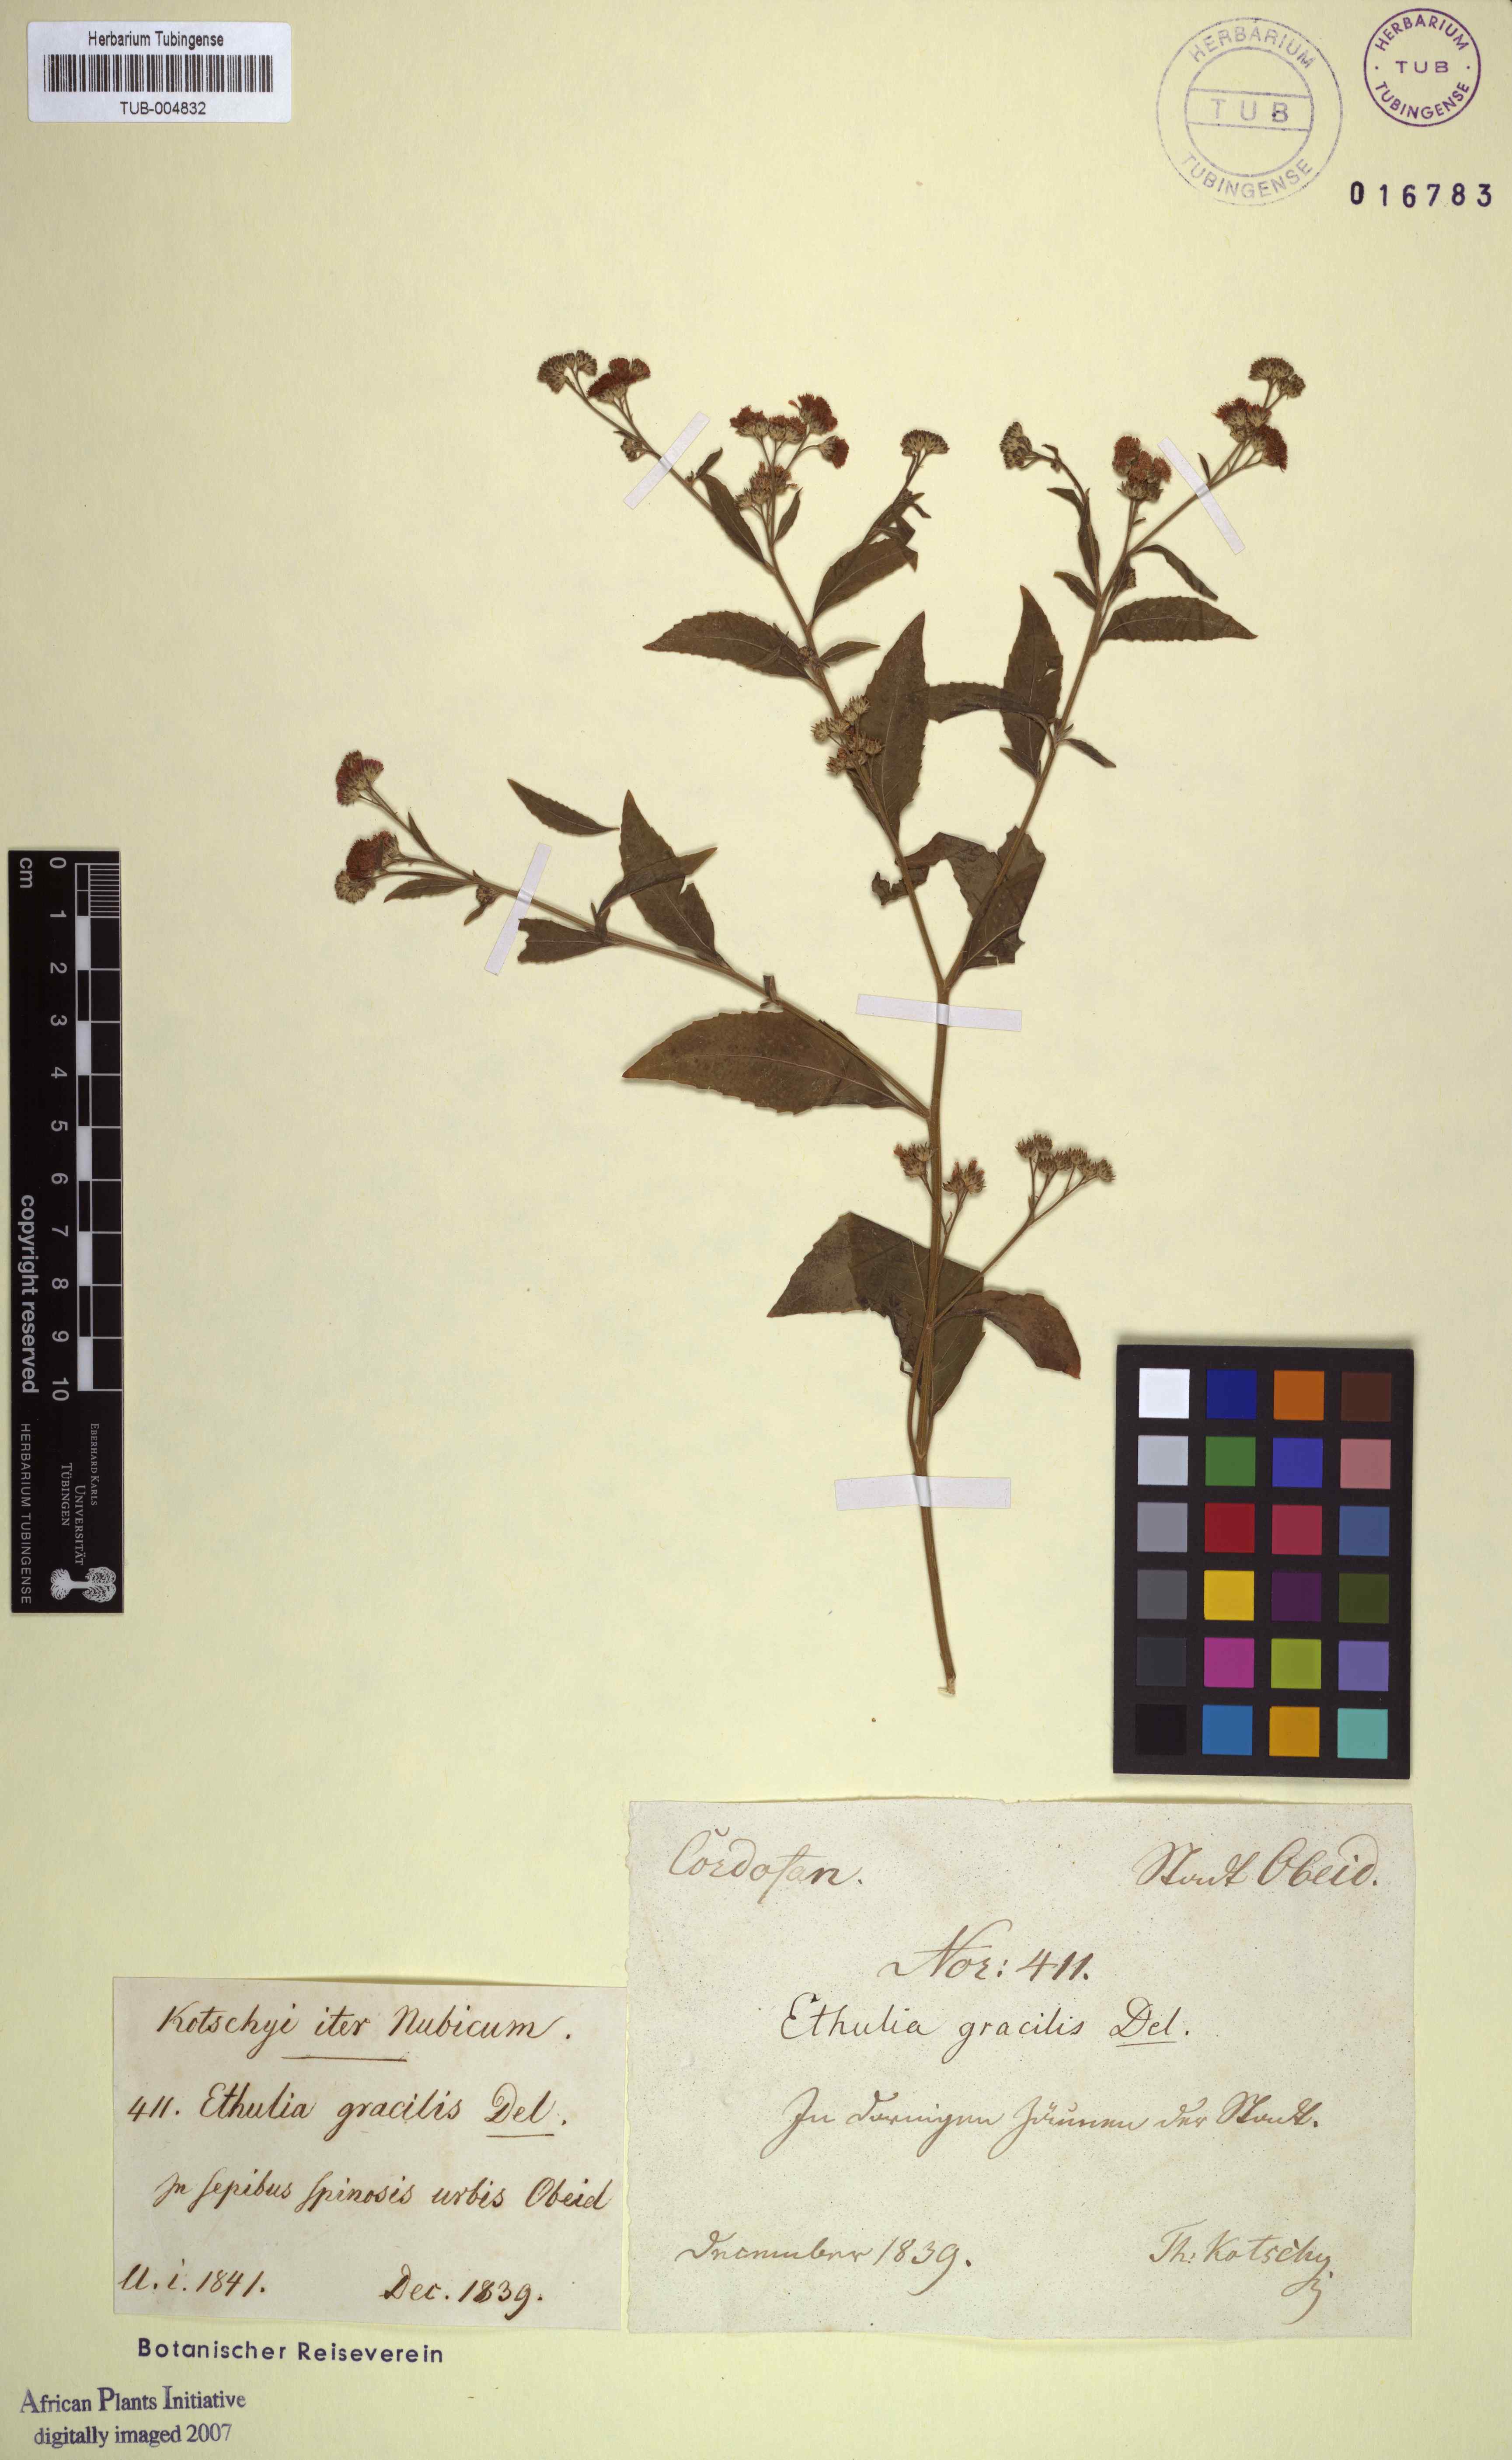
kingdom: Plantae
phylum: Tracheophyta
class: Magnoliopsida
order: Asterales
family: Asteraceae
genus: Ethulia
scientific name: Ethulia conyzoides
